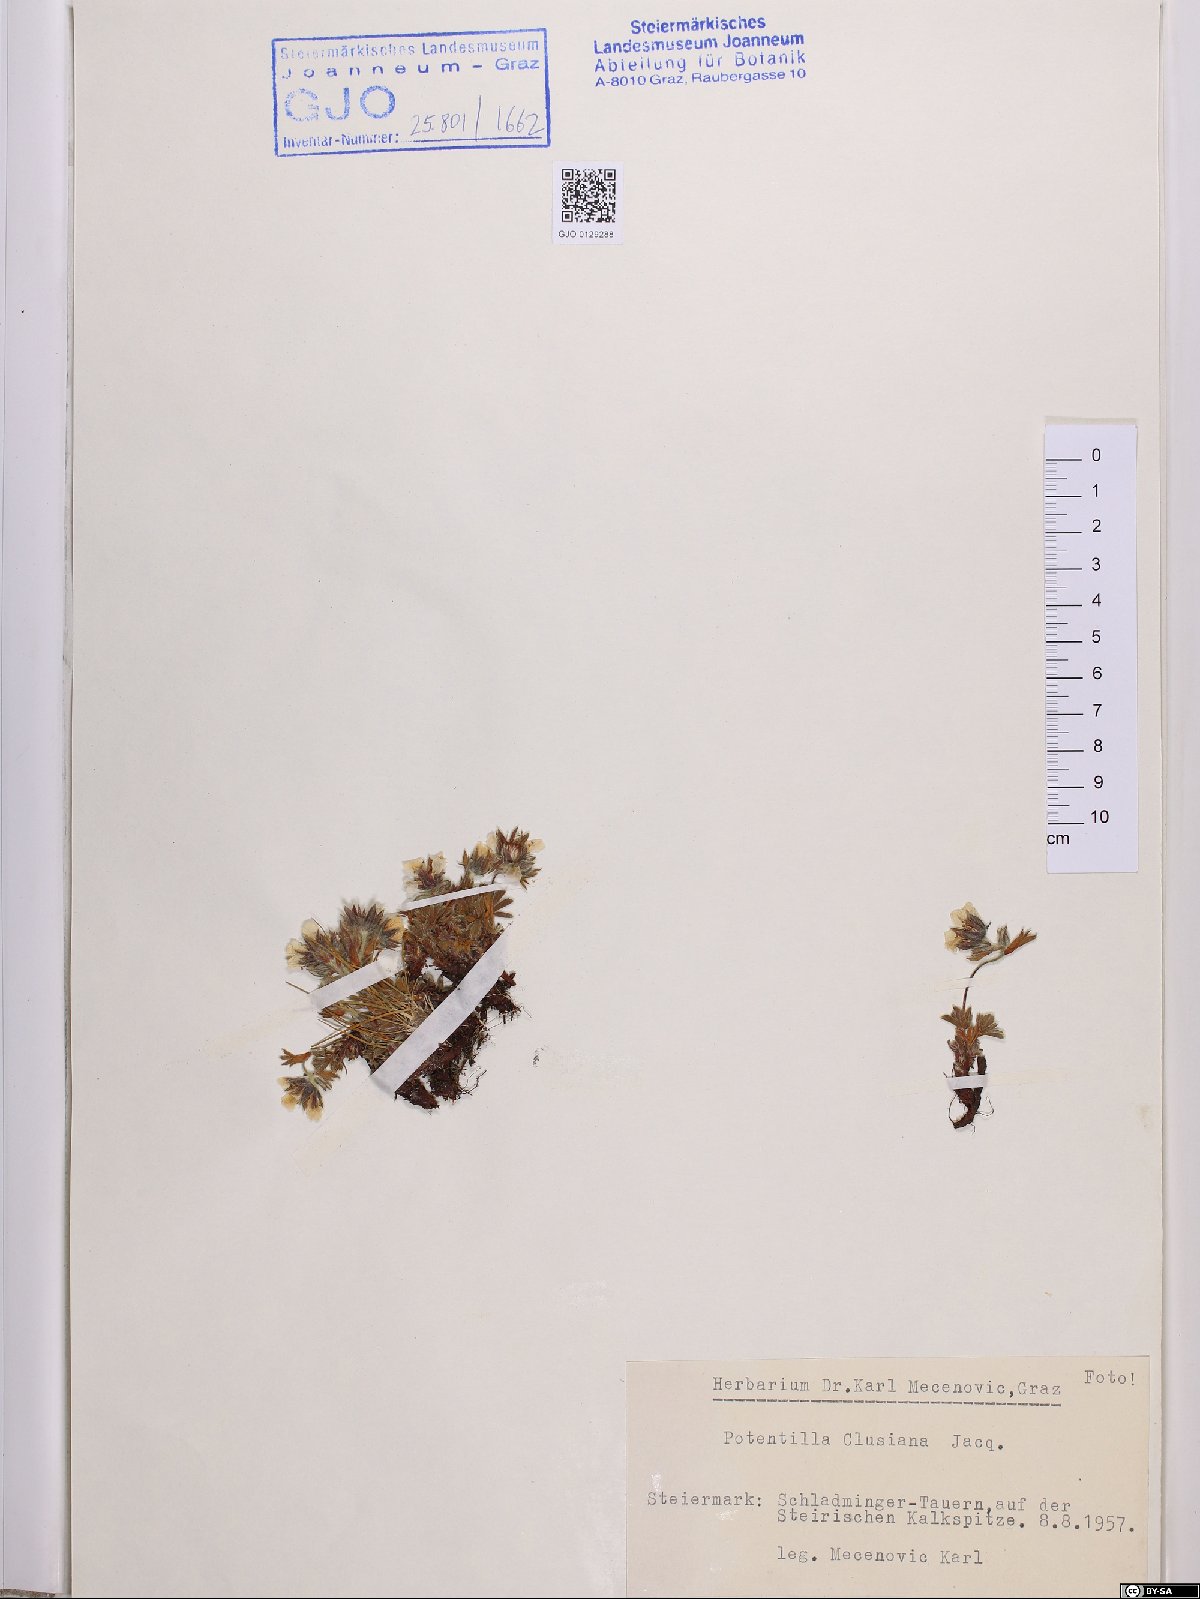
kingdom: Plantae
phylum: Tracheophyta
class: Magnoliopsida
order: Rosales
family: Rosaceae
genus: Potentilla
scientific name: Potentilla clusiana
